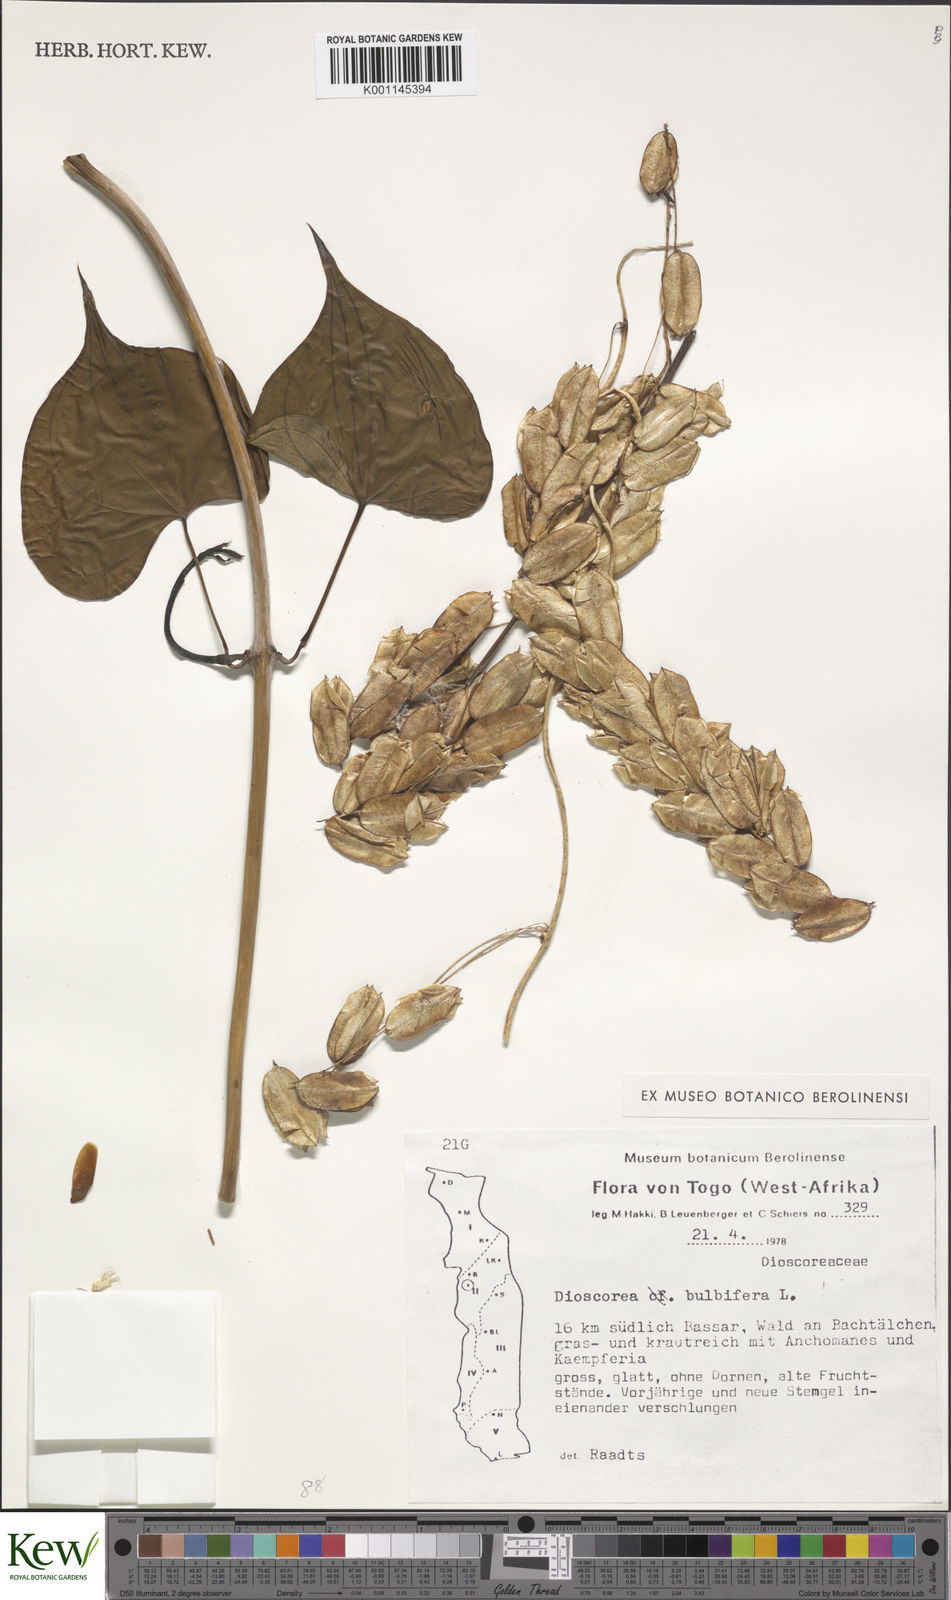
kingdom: Plantae
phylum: Tracheophyta
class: Liliopsida
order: Dioscoreales
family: Dioscoreaceae
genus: Dioscorea
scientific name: Dioscorea bulbifera
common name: Air yam
